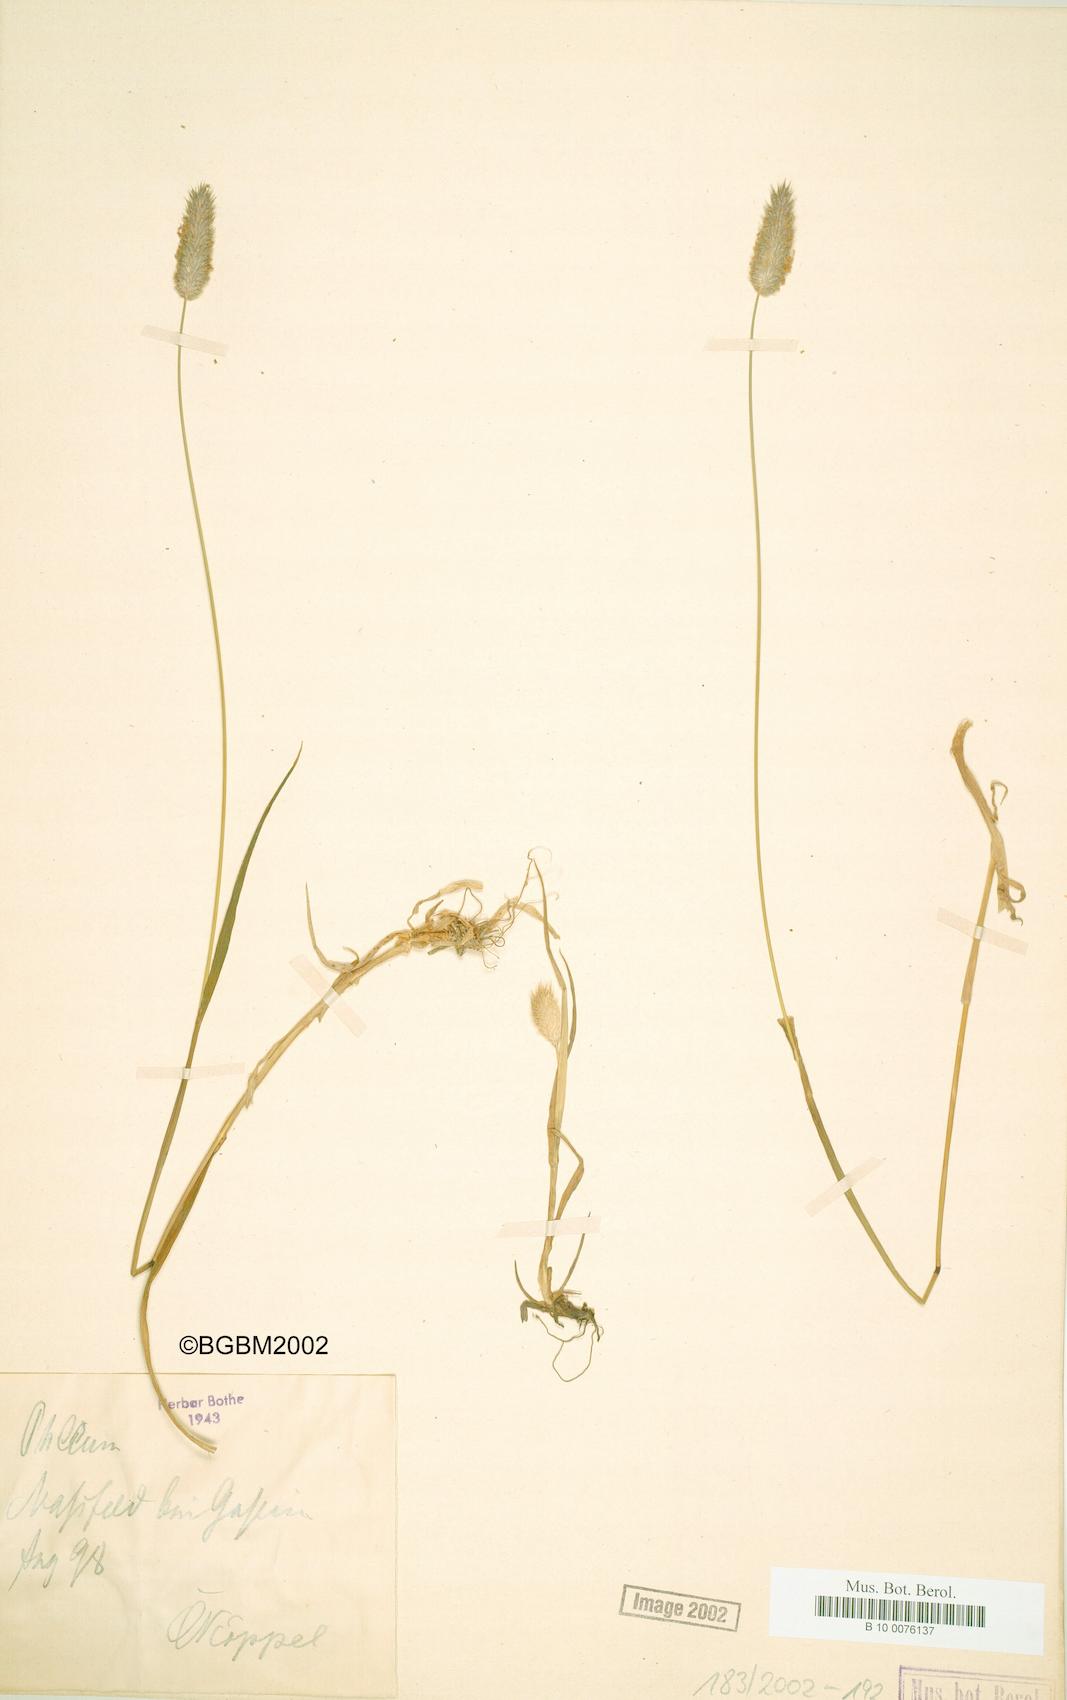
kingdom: Plantae
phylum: Tracheophyta
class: Liliopsida
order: Poales
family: Poaceae
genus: Phleum
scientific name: Phleum alpinum
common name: Alpine cat's-tail
